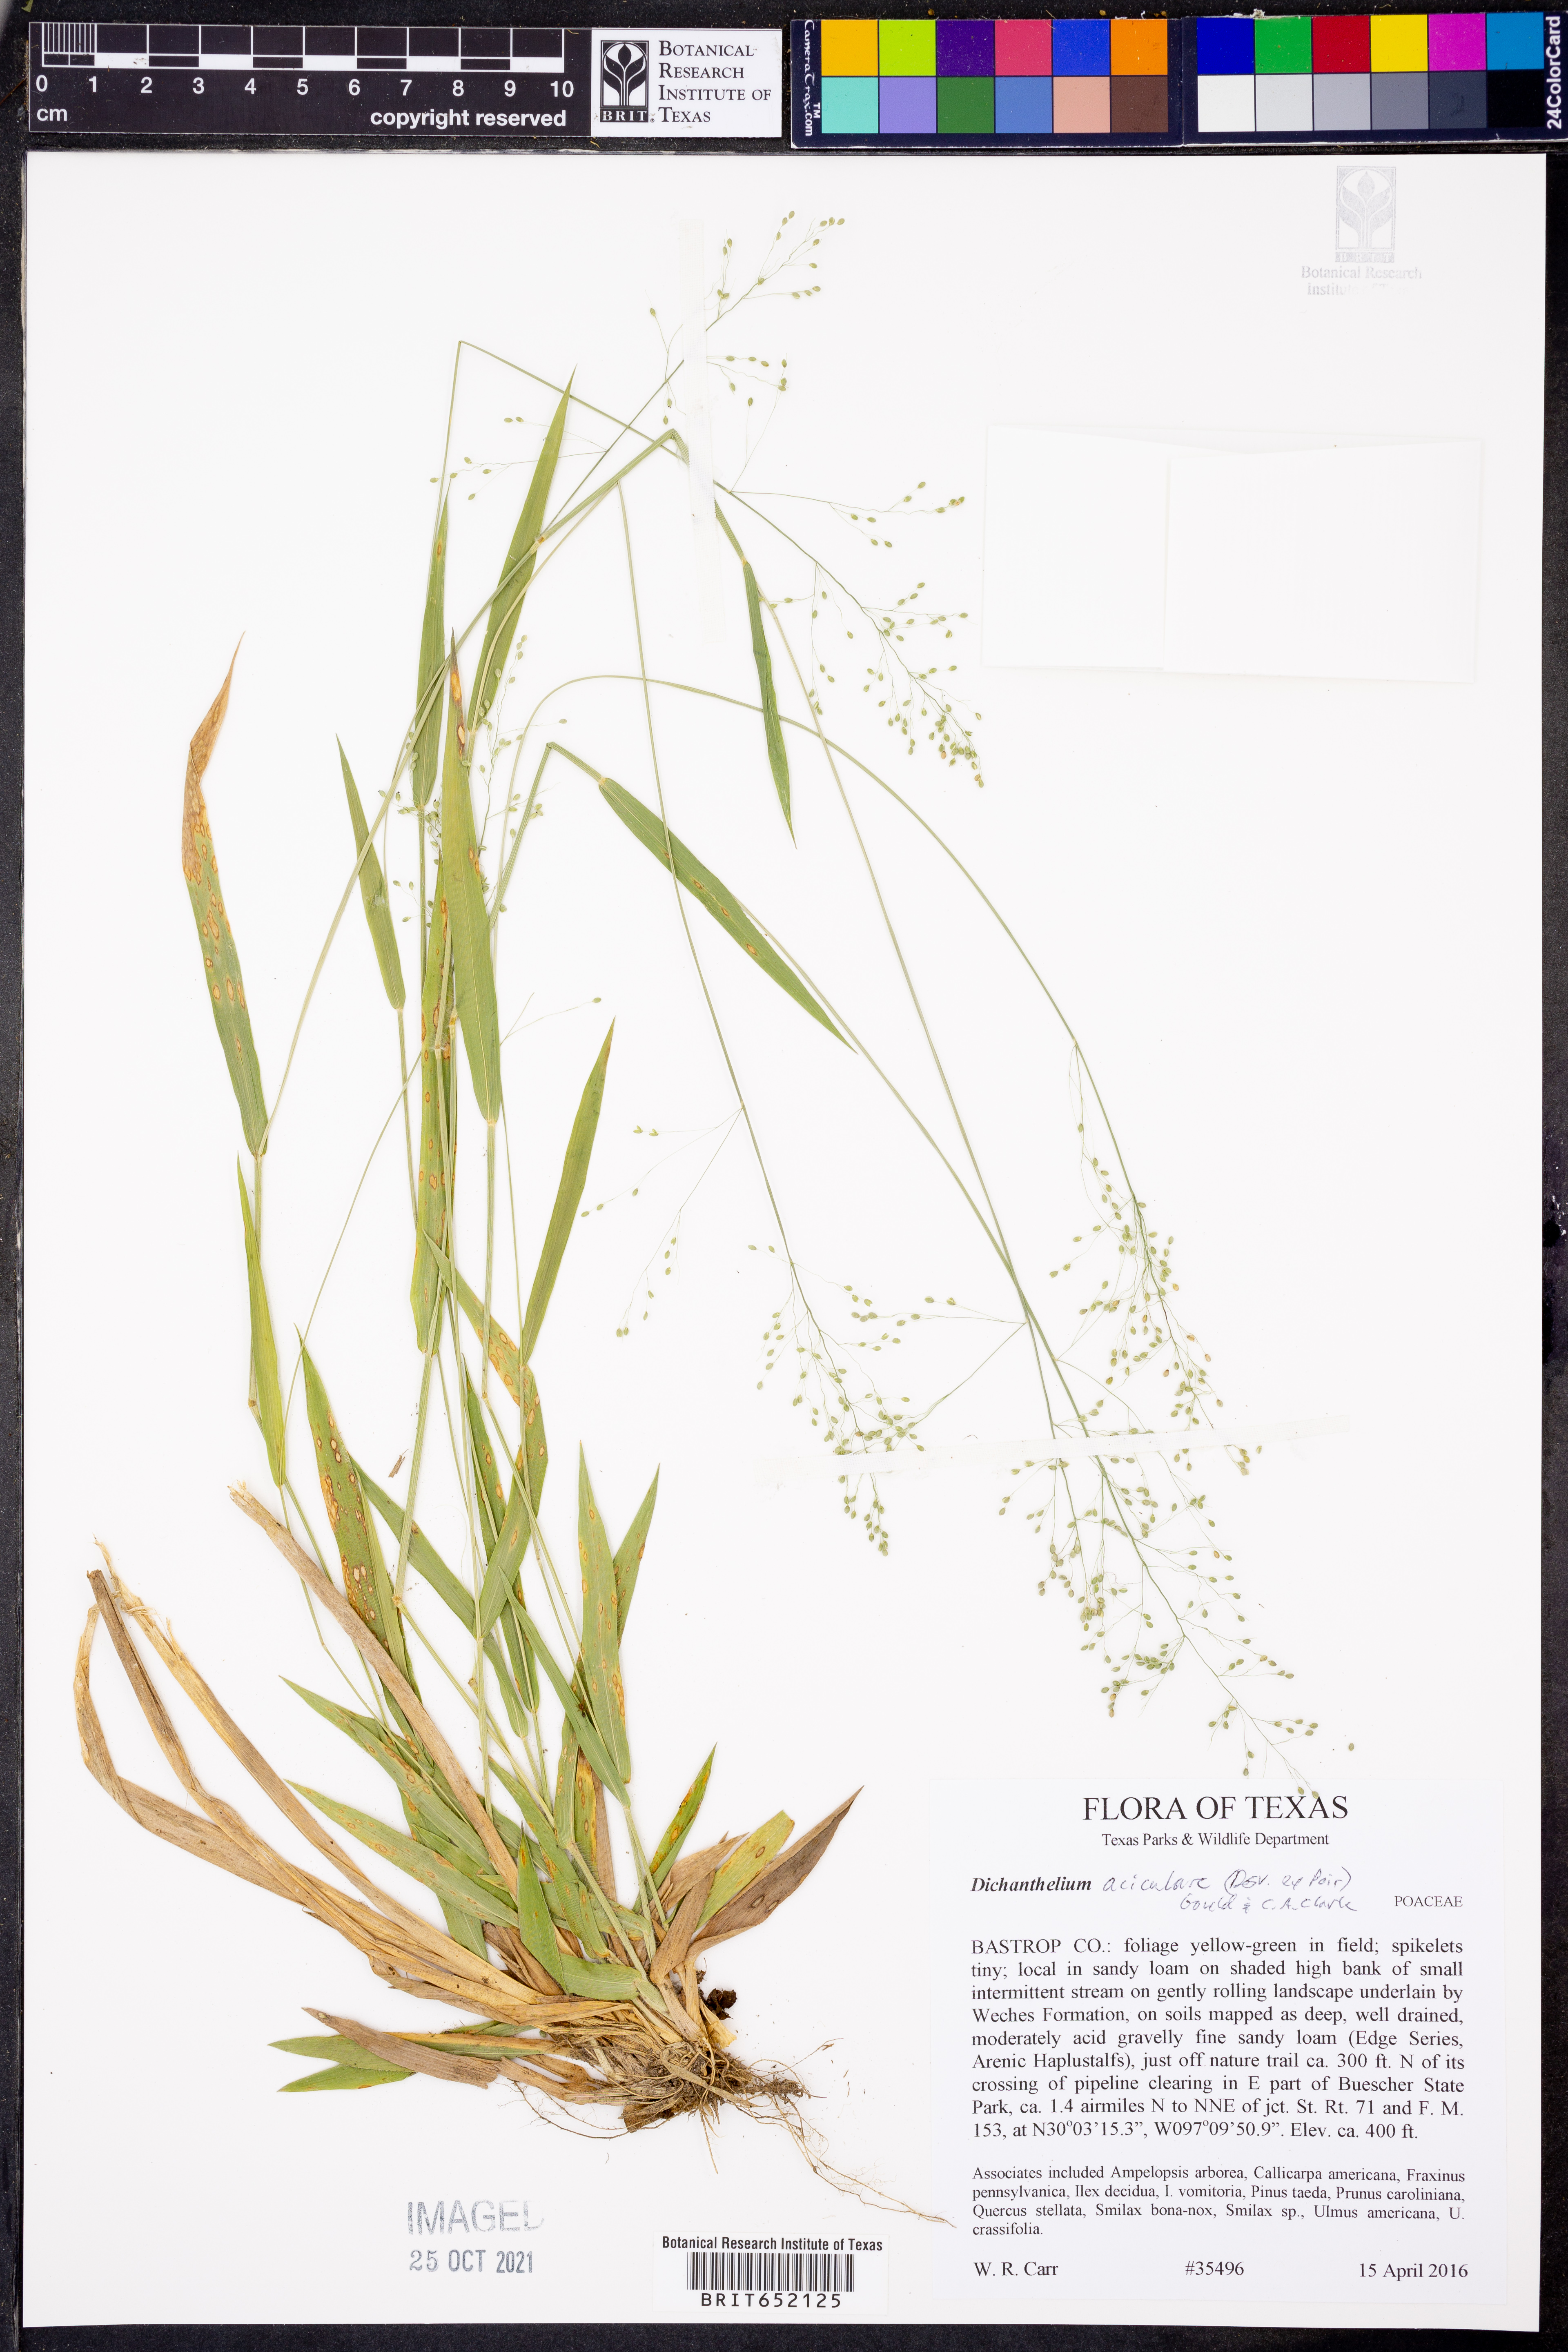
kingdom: Plantae
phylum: Tracheophyta
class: Liliopsida
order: Poales
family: Poaceae
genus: Dichanthelium
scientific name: Dichanthelium aciculare
